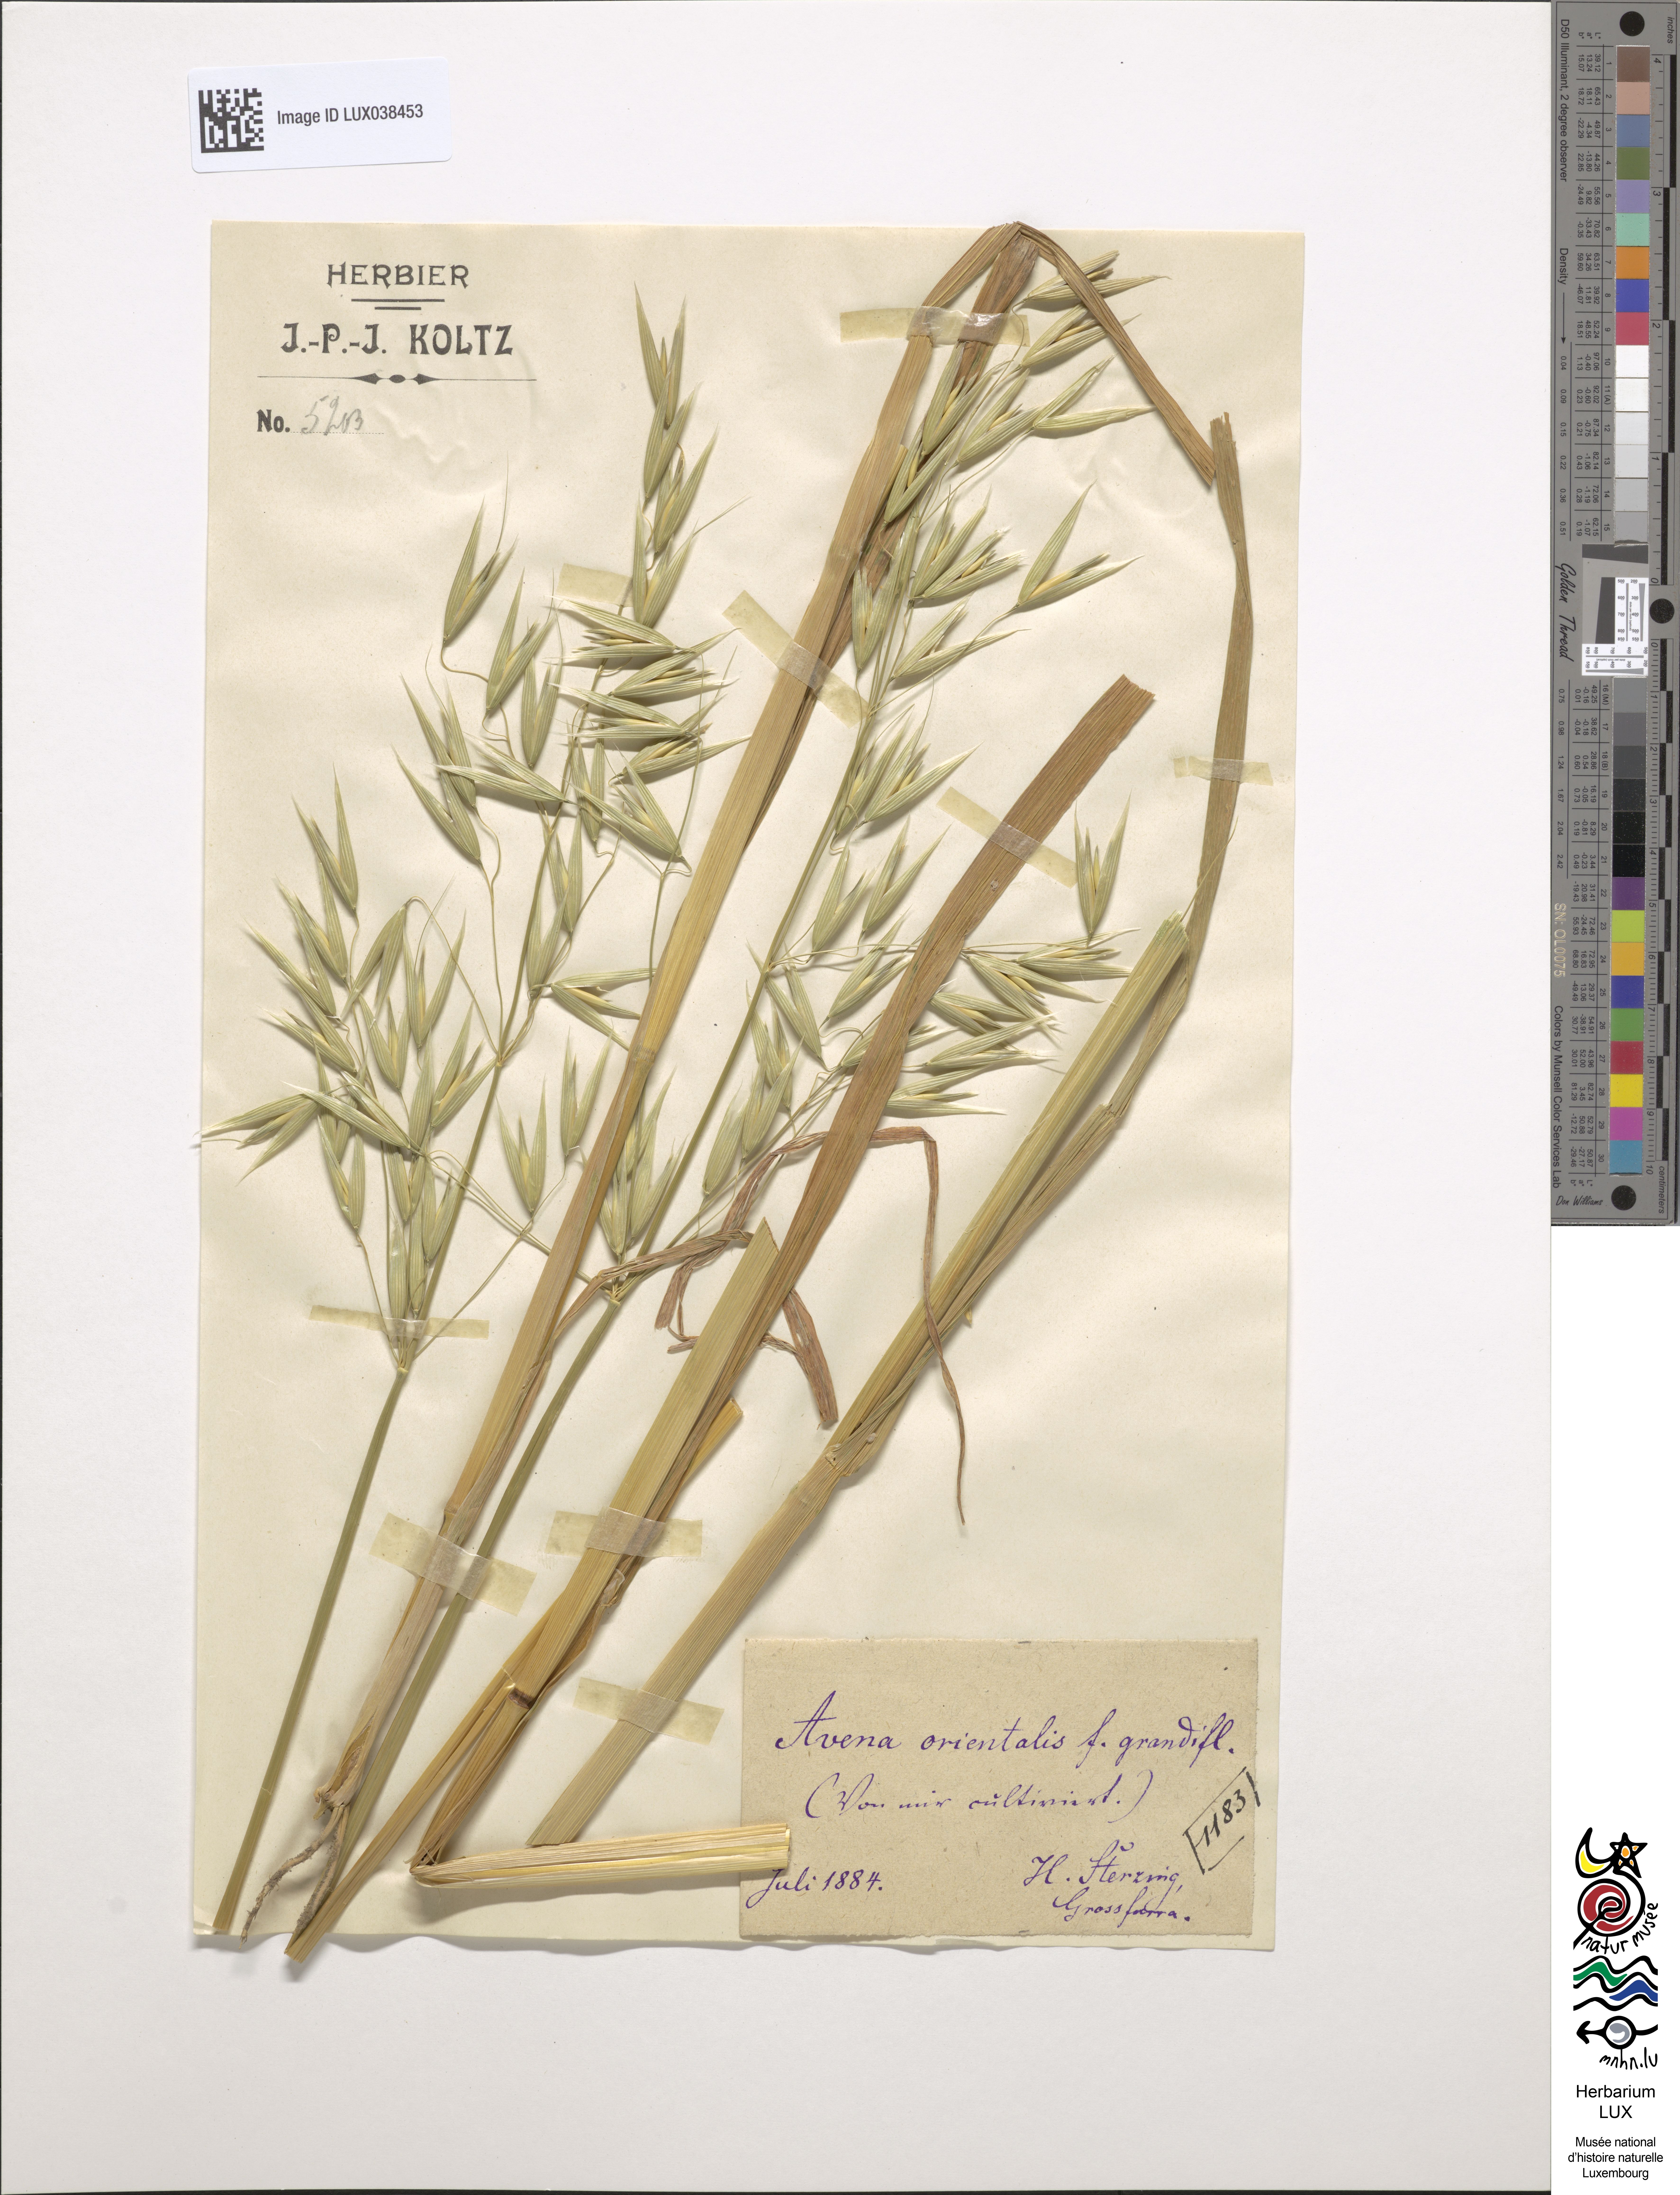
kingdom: Plantae
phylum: Tracheophyta
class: Liliopsida
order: Poales
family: Poaceae
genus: Avena
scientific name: Avena sativa
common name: Oat
